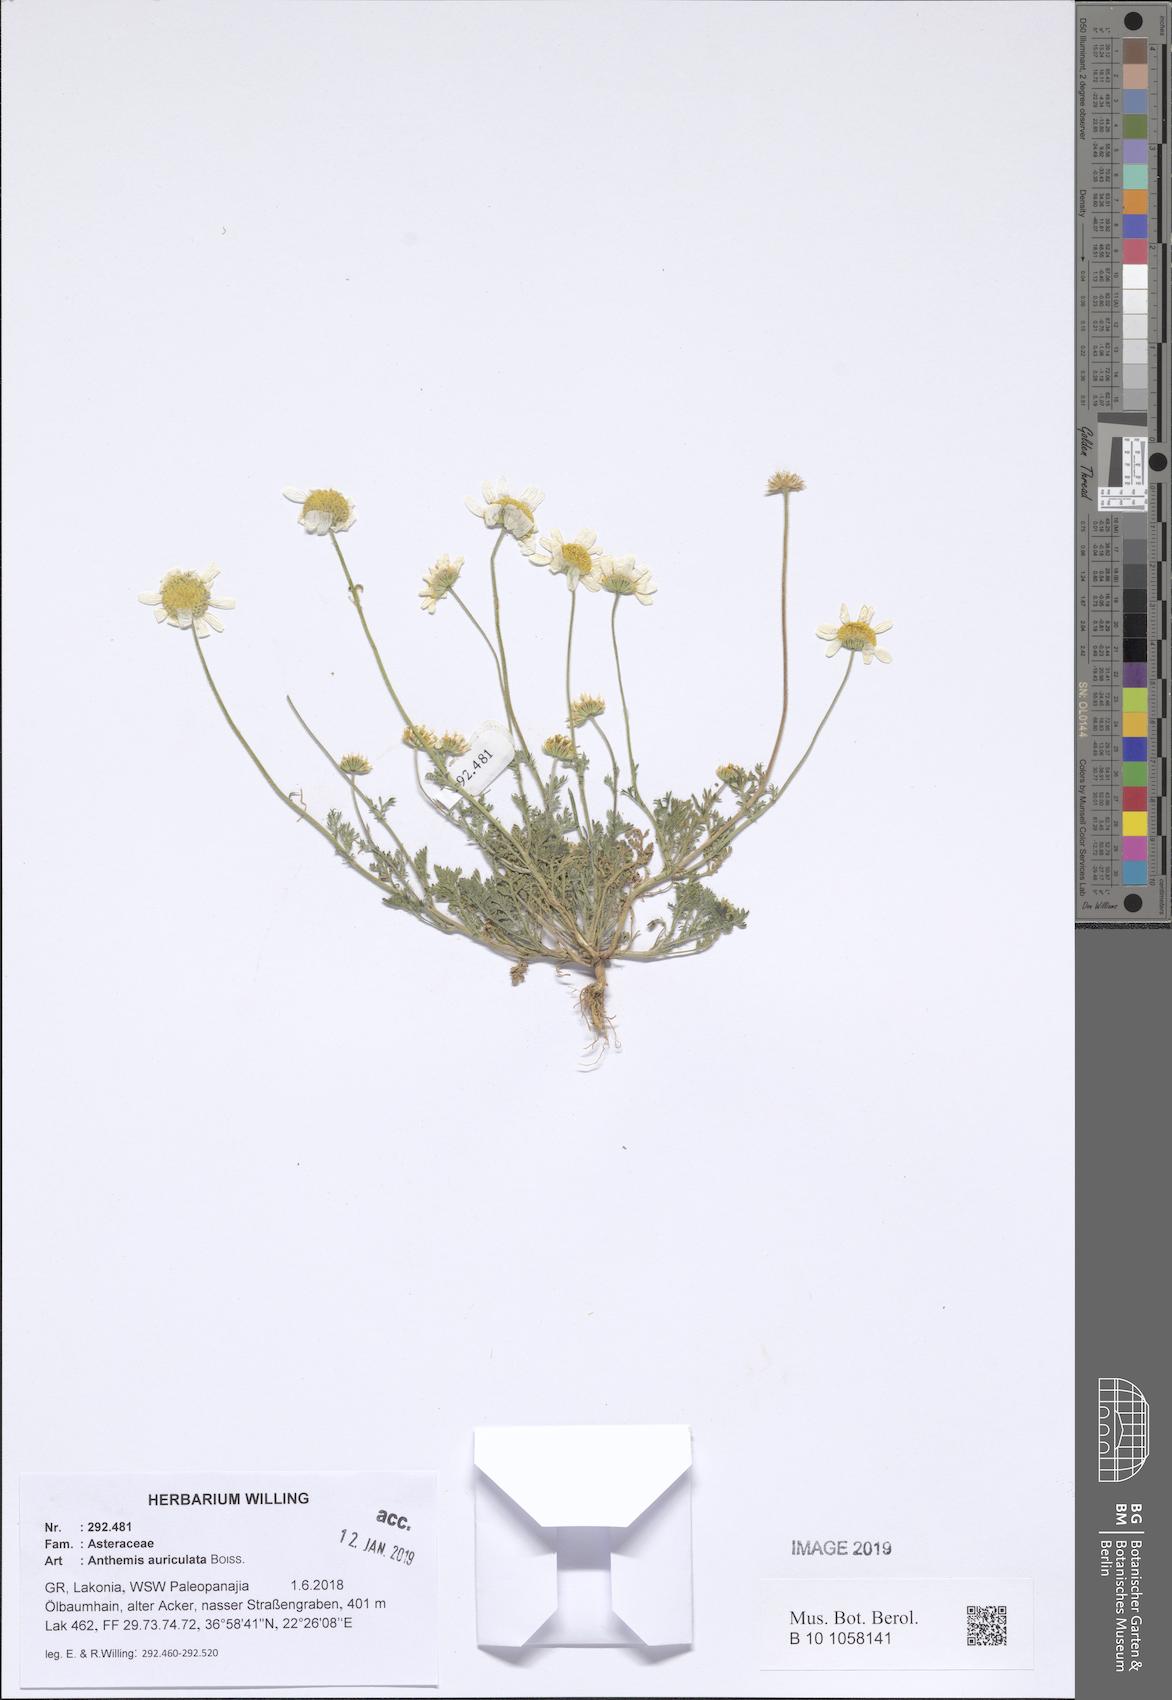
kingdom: Plantae
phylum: Tracheophyta
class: Magnoliopsida
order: Asterales
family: Asteraceae
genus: Anthemis
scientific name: Anthemis auriculata
